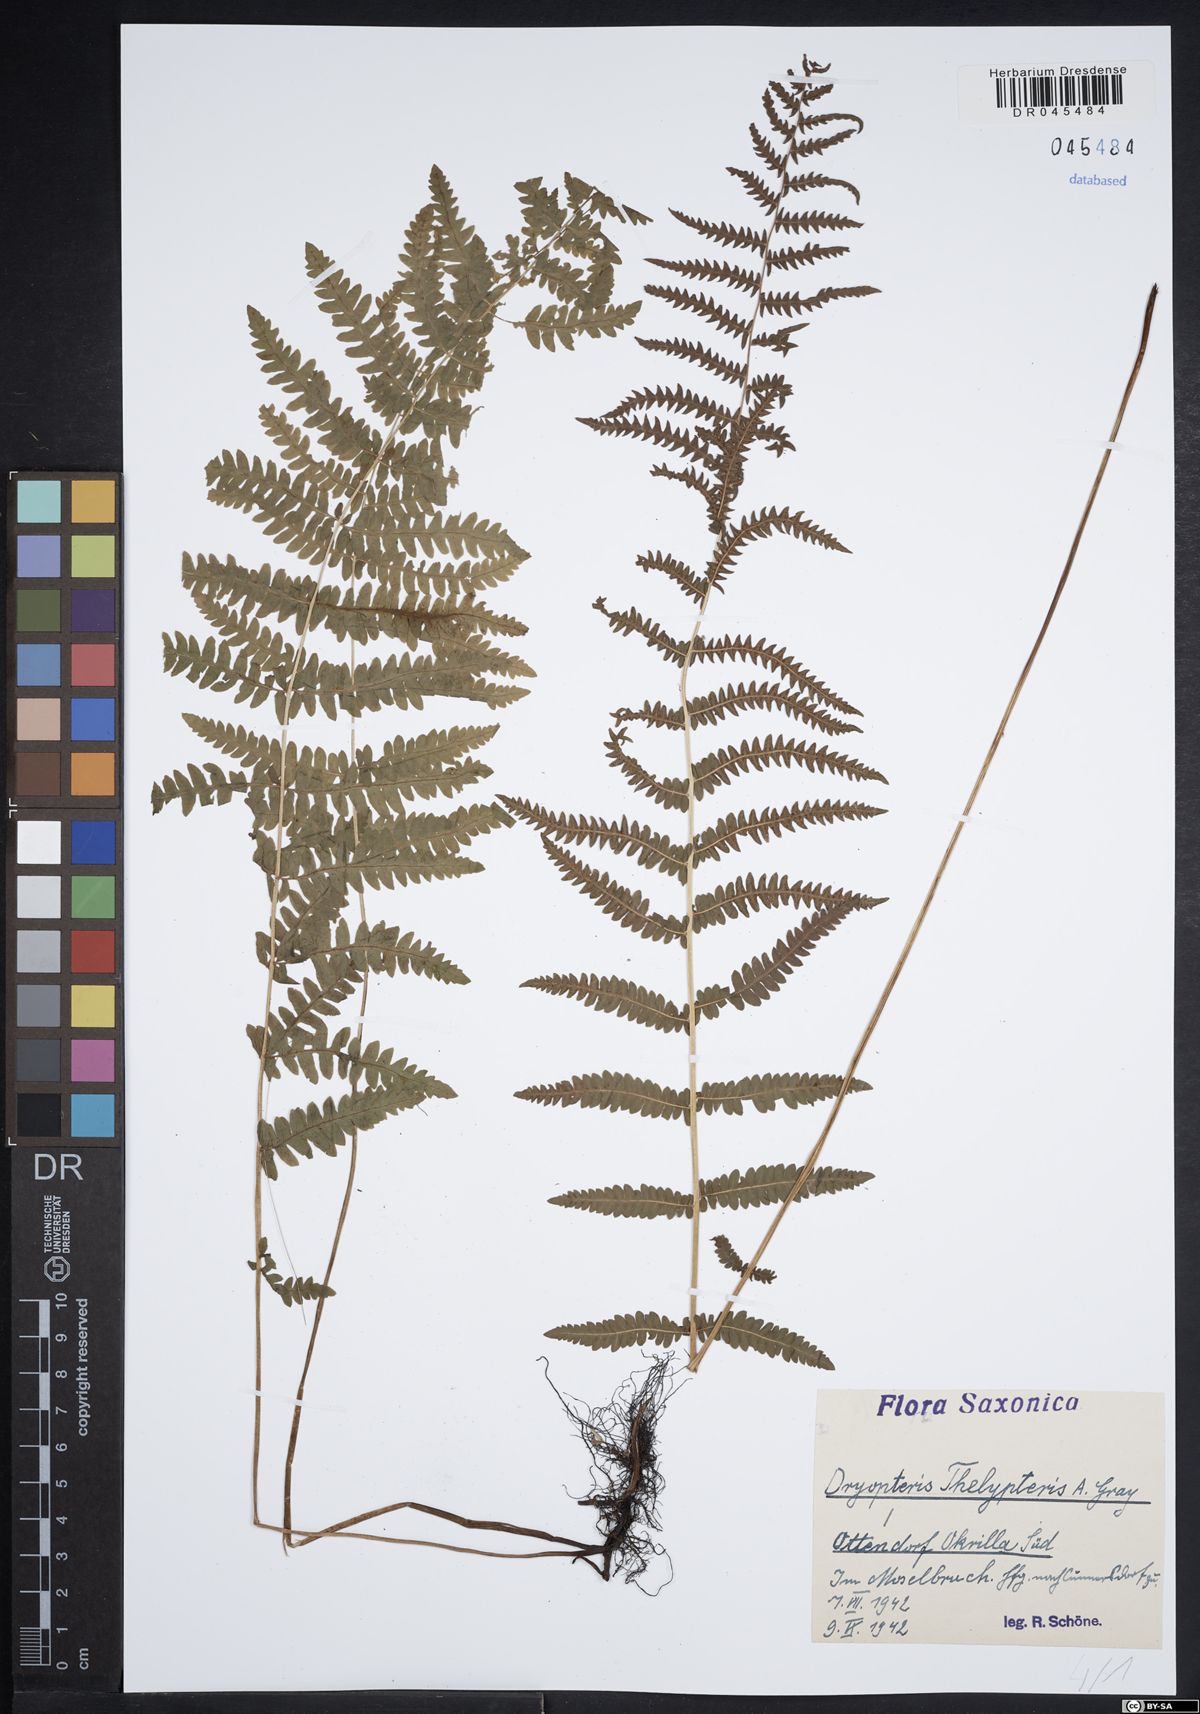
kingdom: Plantae
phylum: Tracheophyta
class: Polypodiopsida
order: Polypodiales
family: Thelypteridaceae
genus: Thelypteris
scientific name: Thelypteris palustris
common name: Marsh fern
